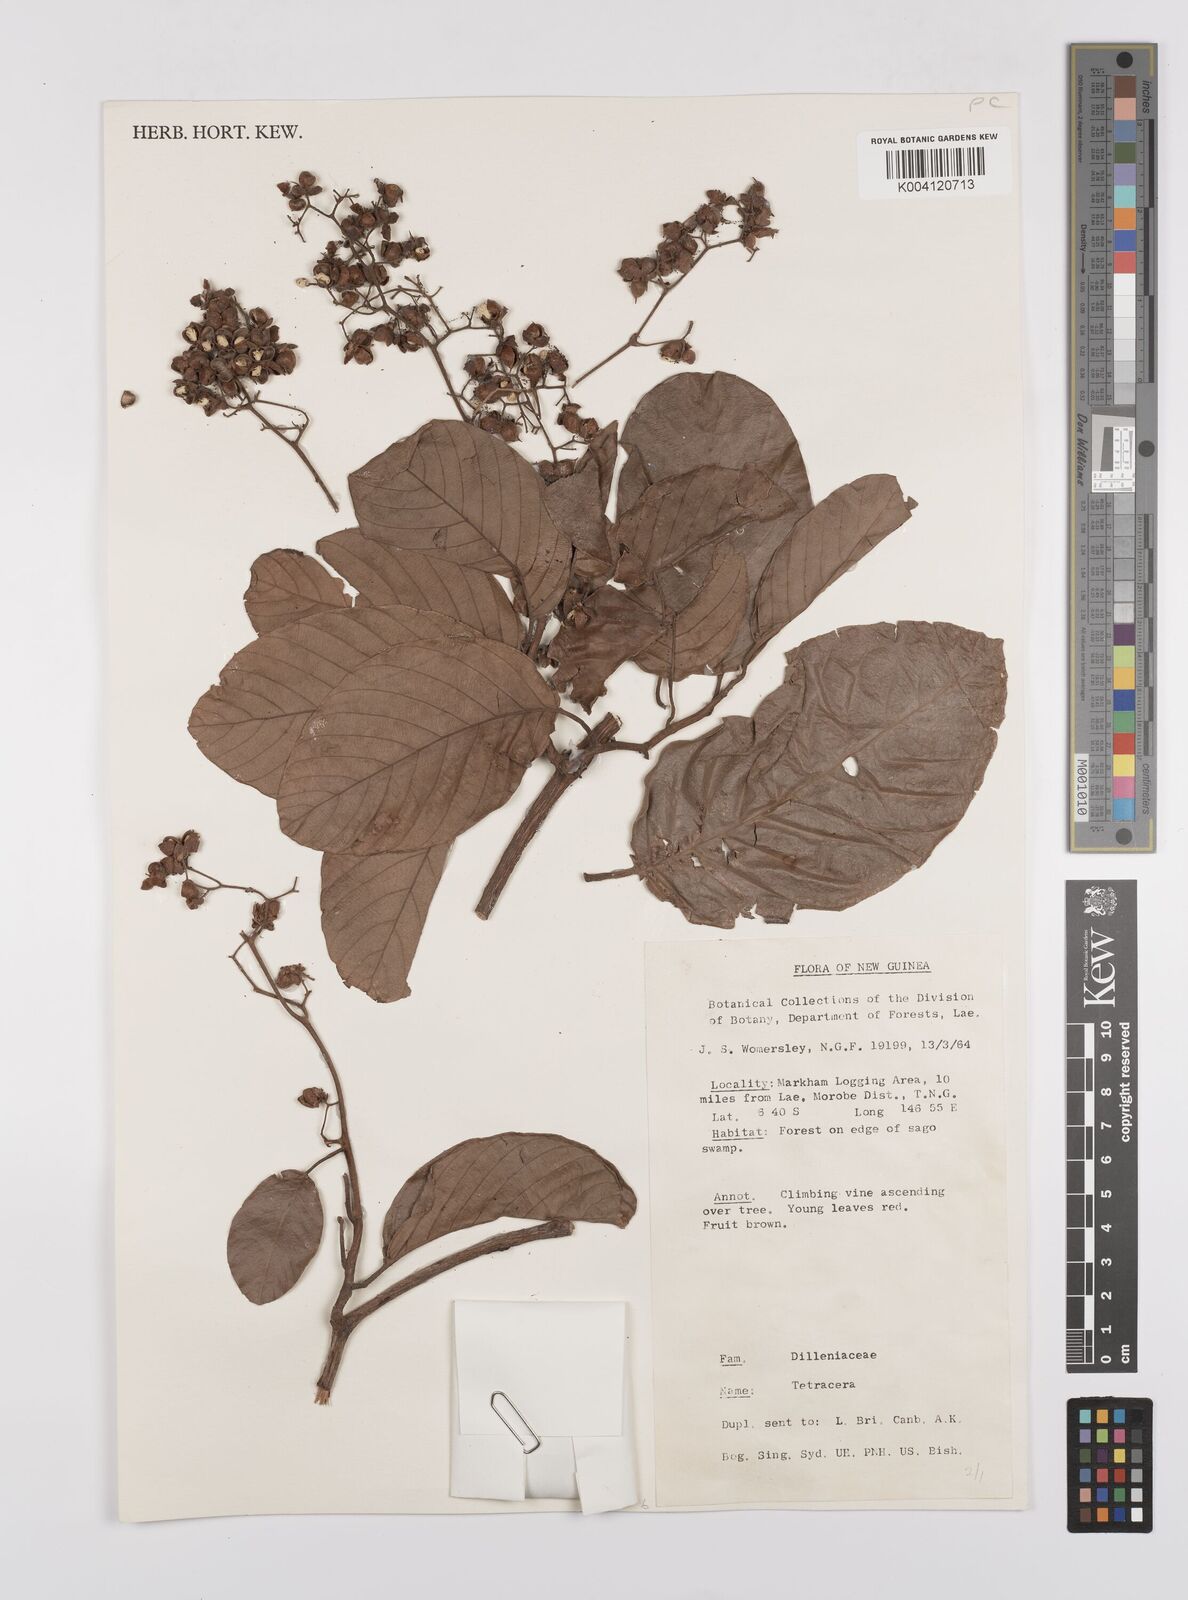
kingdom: Plantae
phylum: Tracheophyta
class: Magnoliopsida
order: Dilleniales
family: Dilleniaceae
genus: Tetracera
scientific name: Tetracera
